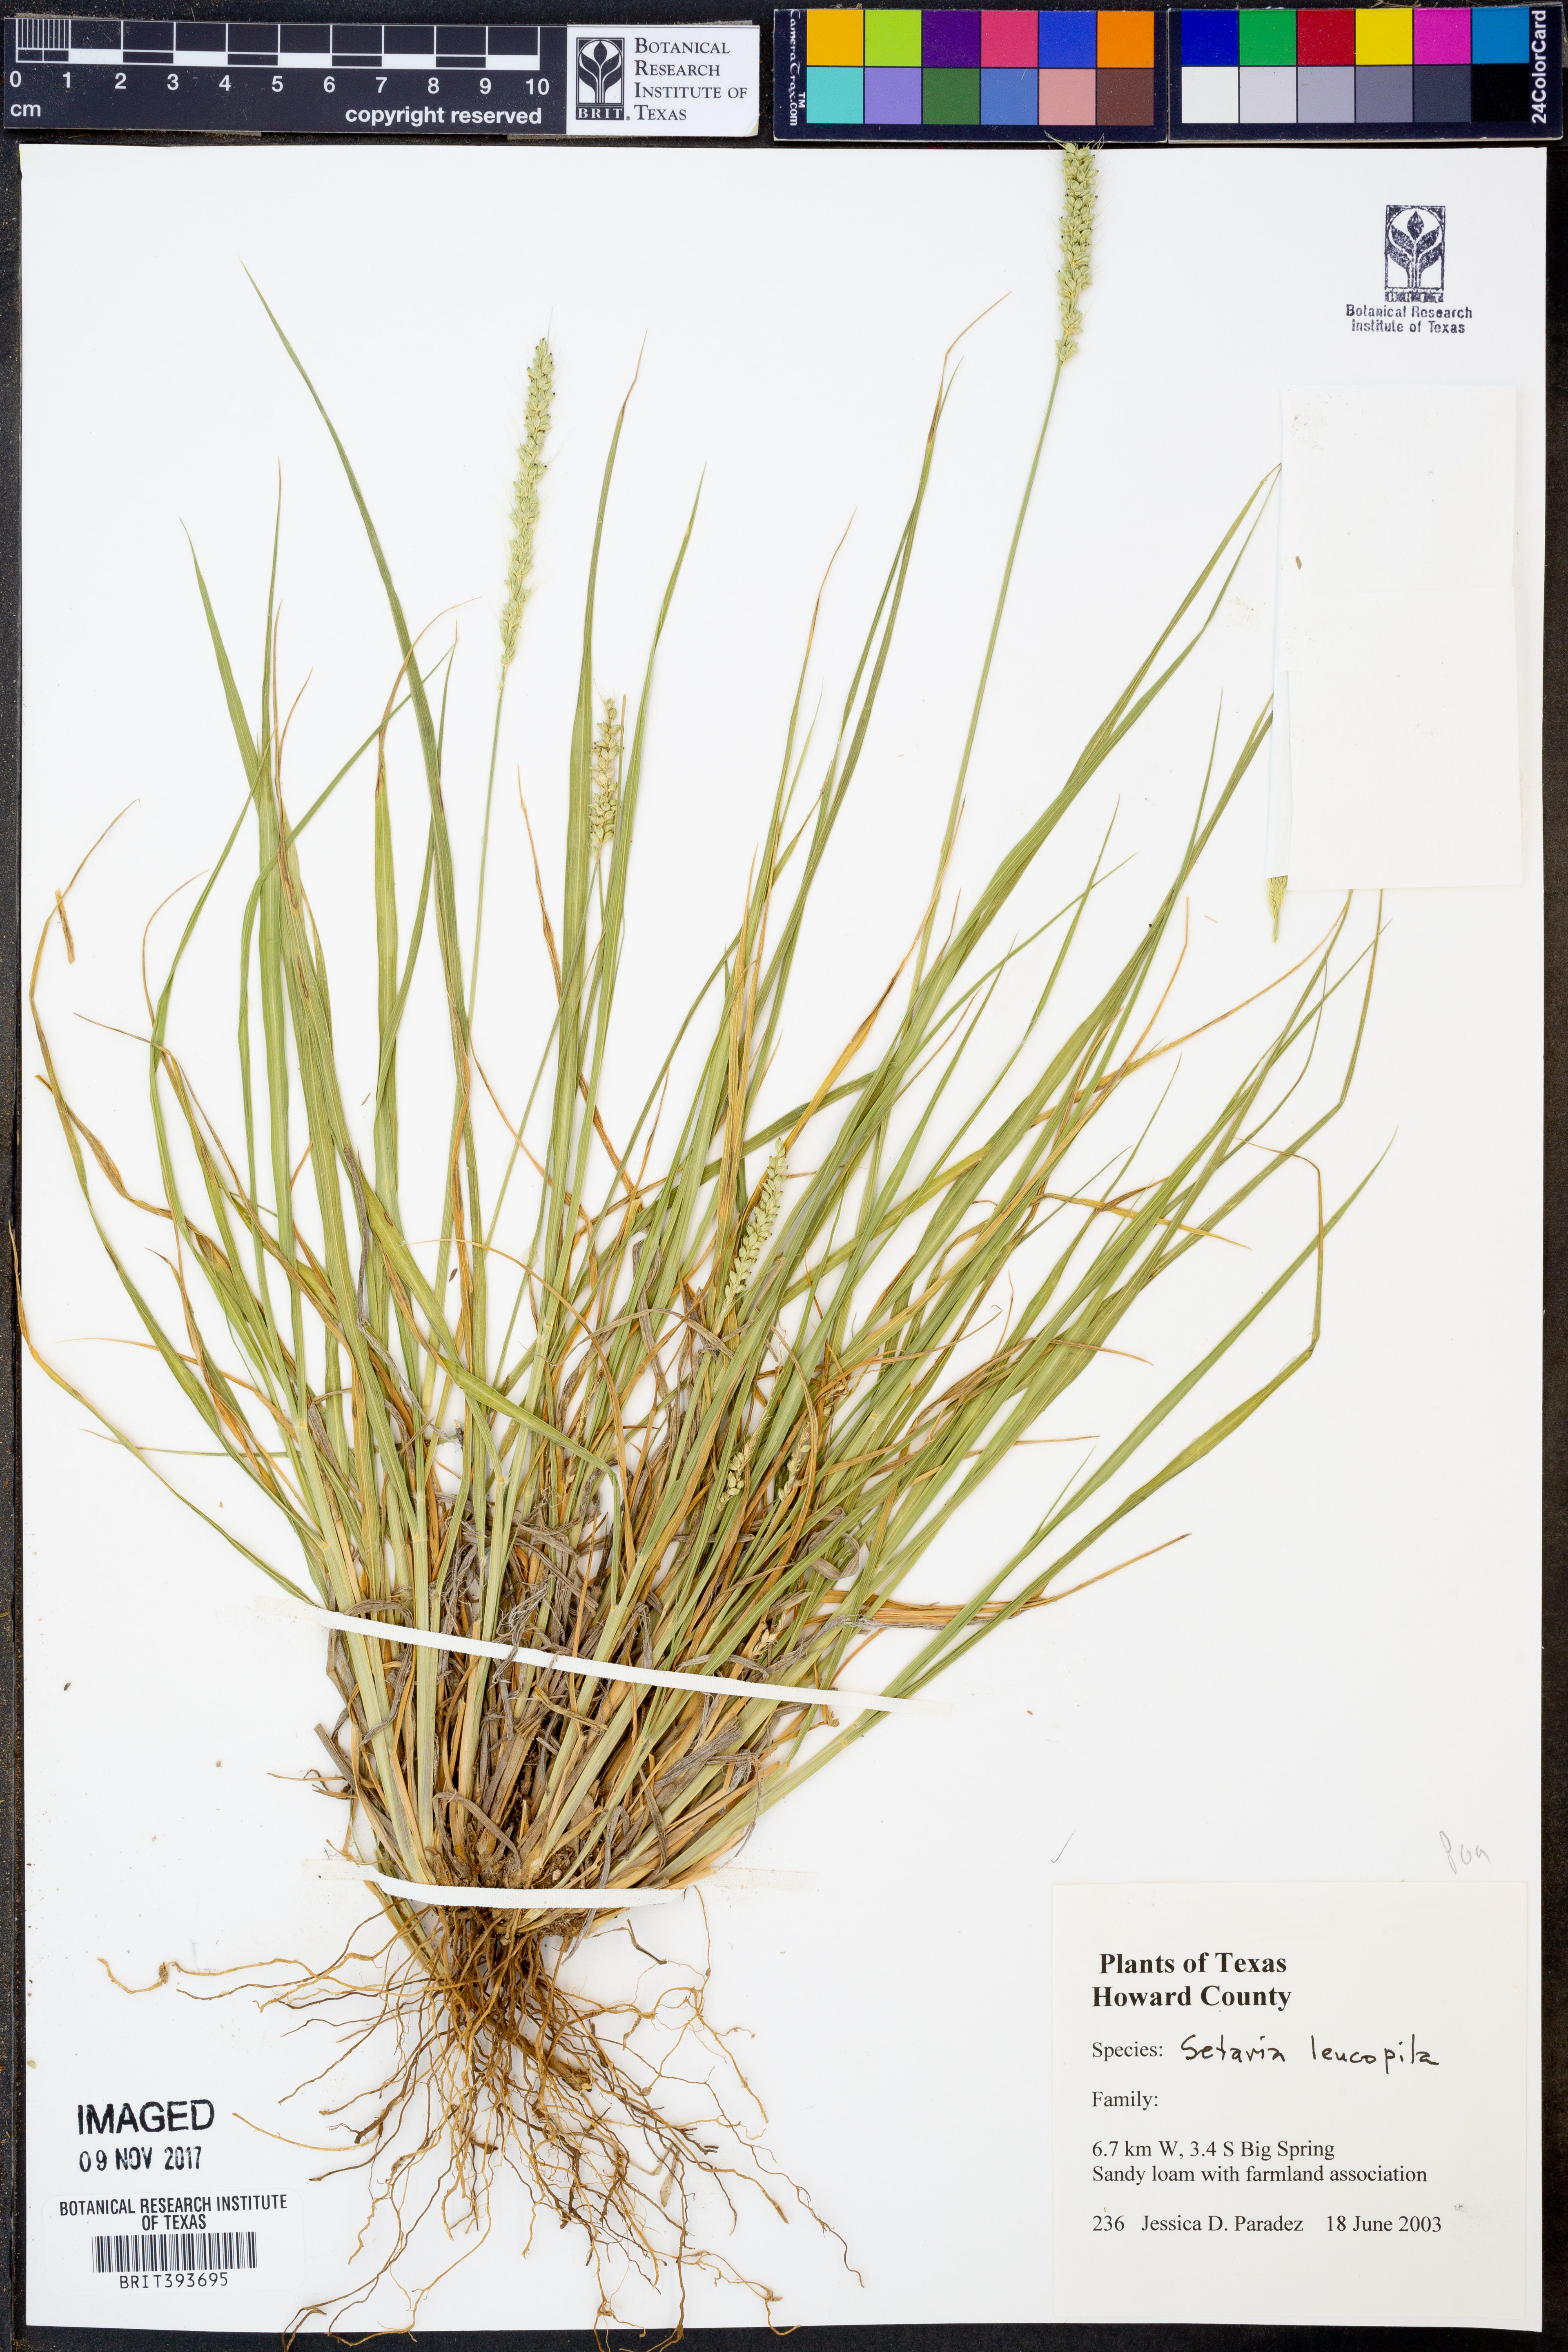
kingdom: Plantae
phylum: Tracheophyta
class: Liliopsida
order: Poales
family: Poaceae
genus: Setaria
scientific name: Setaria leucopila
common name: Plains bristle grass
